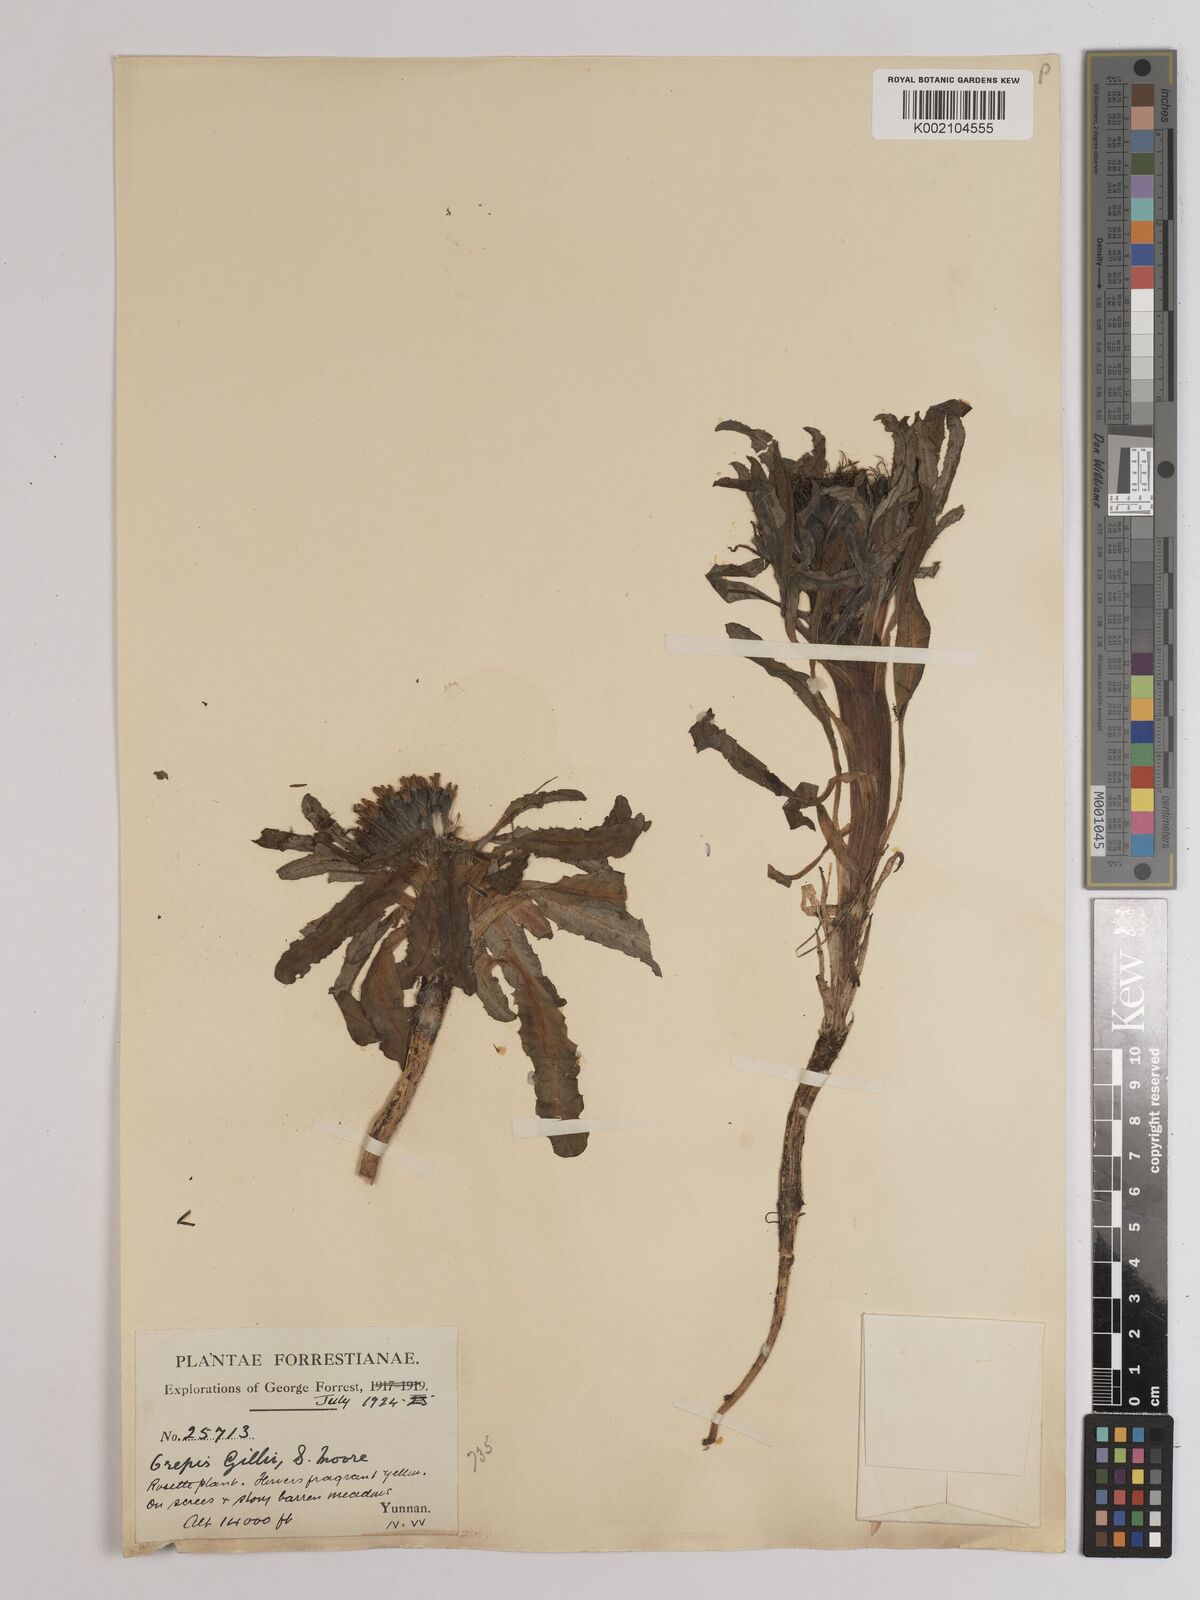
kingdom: Plantae
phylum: Tracheophyta
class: Magnoliopsida
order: Asterales
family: Asteraceae
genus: Soroseris
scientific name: Soroseris hookeriana
